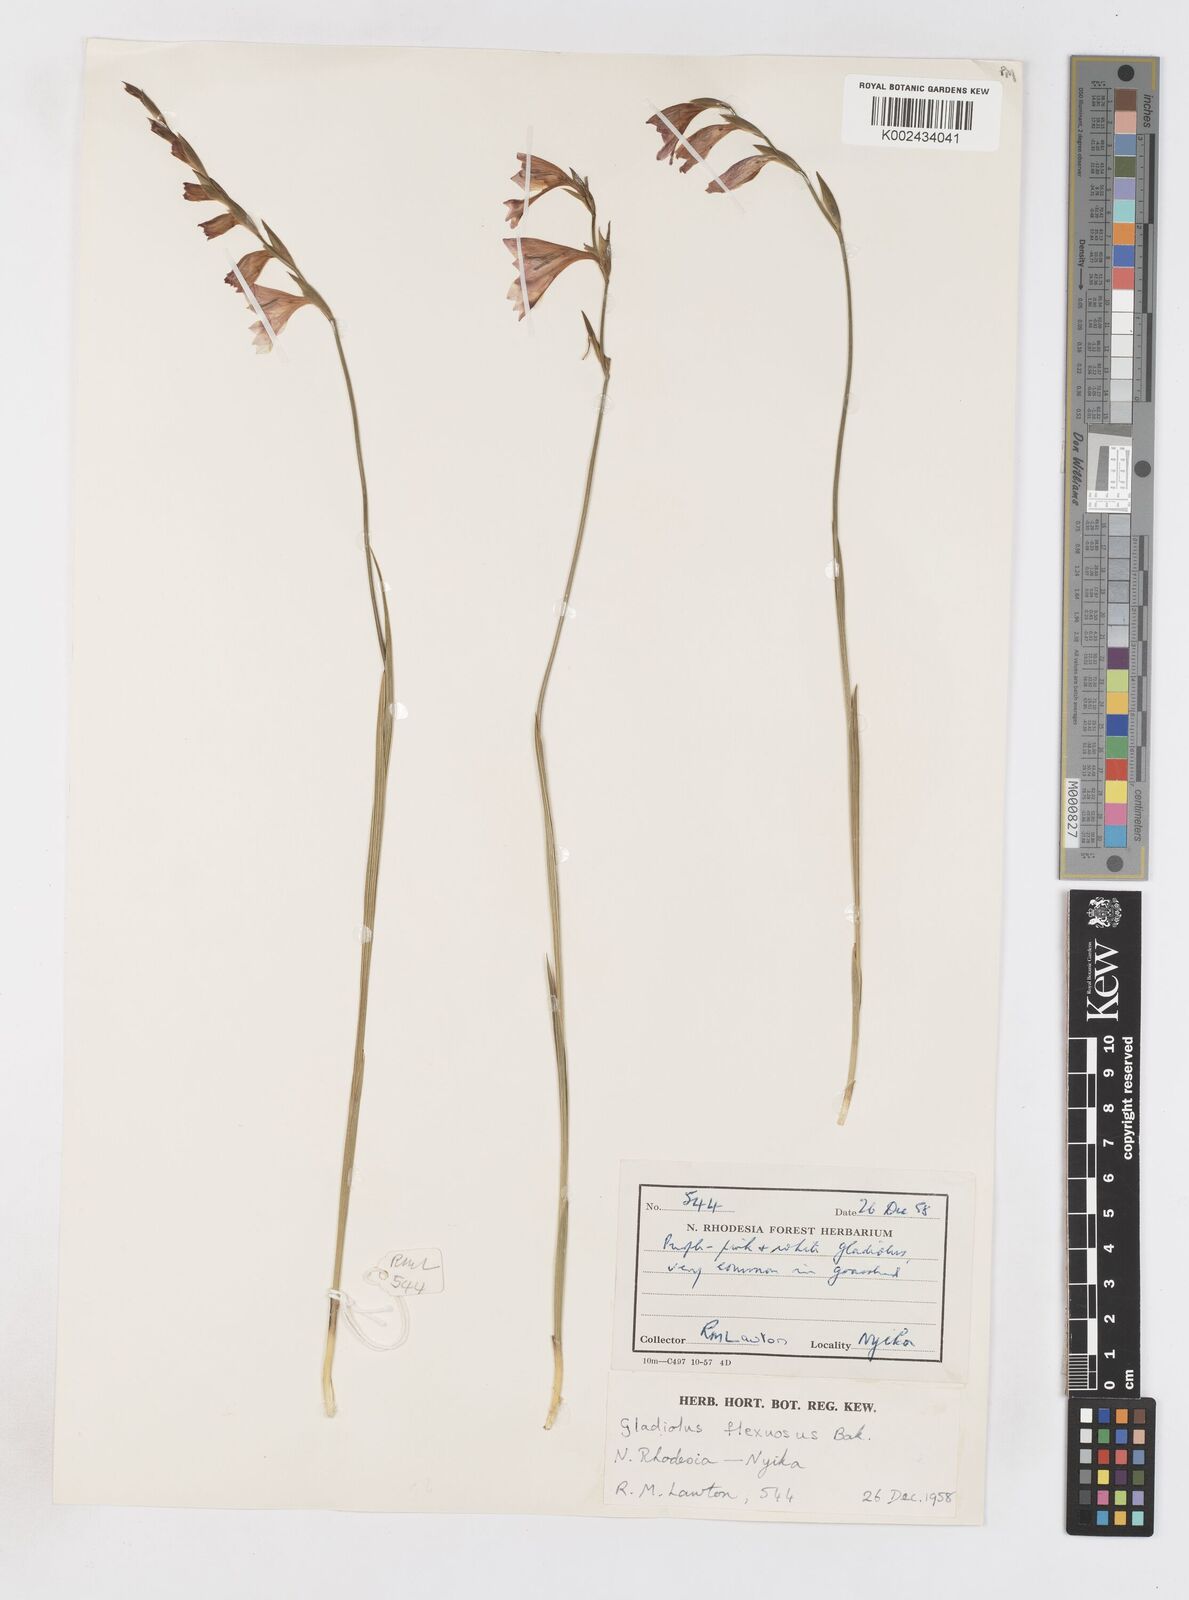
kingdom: Plantae
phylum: Tracheophyta
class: Liliopsida
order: Asparagales
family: Iridaceae
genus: Gladiolus
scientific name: Gladiolus atropurpureus
